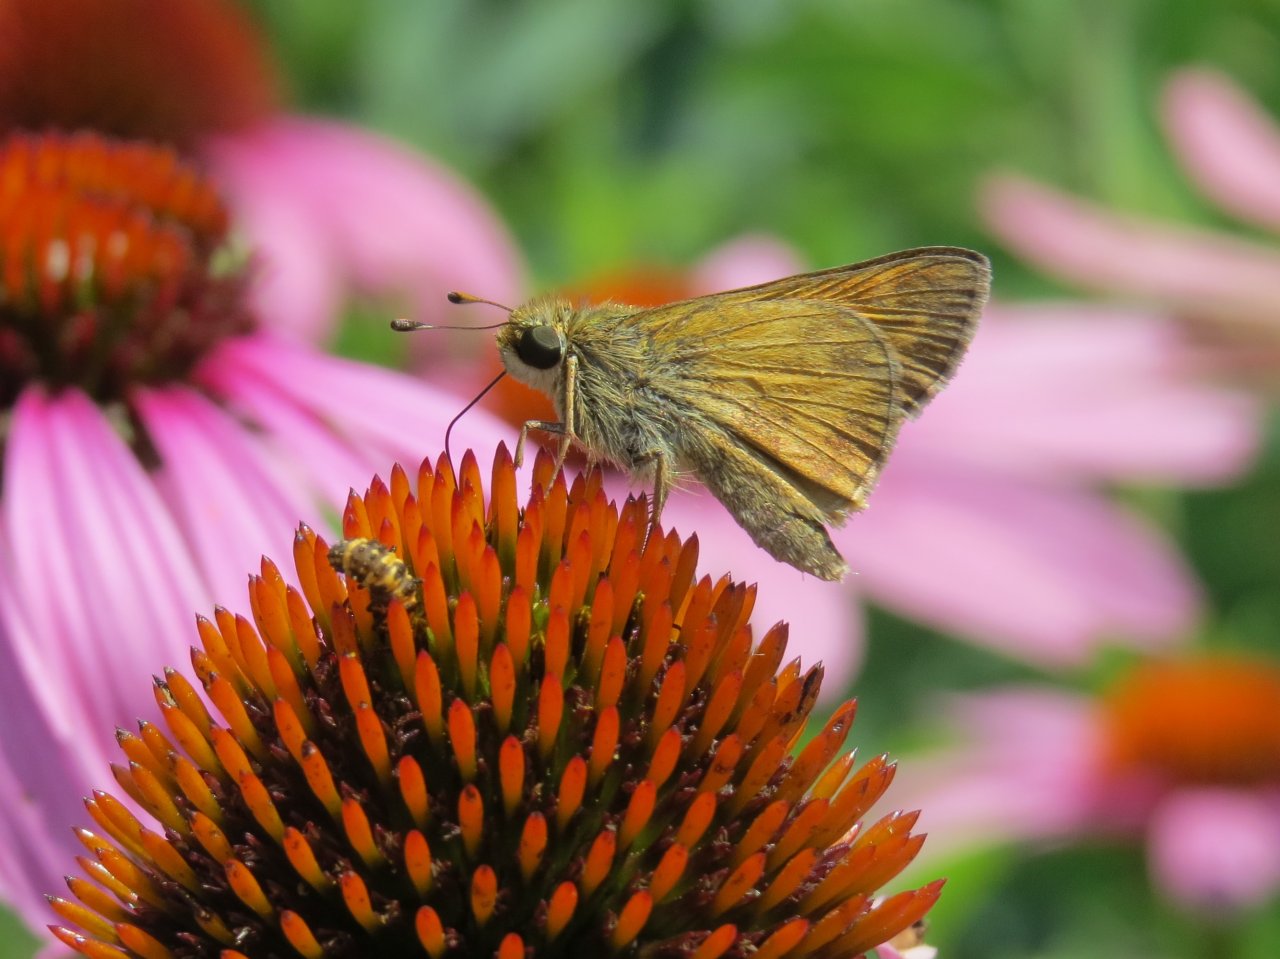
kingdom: Animalia
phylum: Arthropoda
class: Insecta
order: Lepidoptera
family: Hesperiidae
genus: Atalopedes
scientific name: Atalopedes campestris
